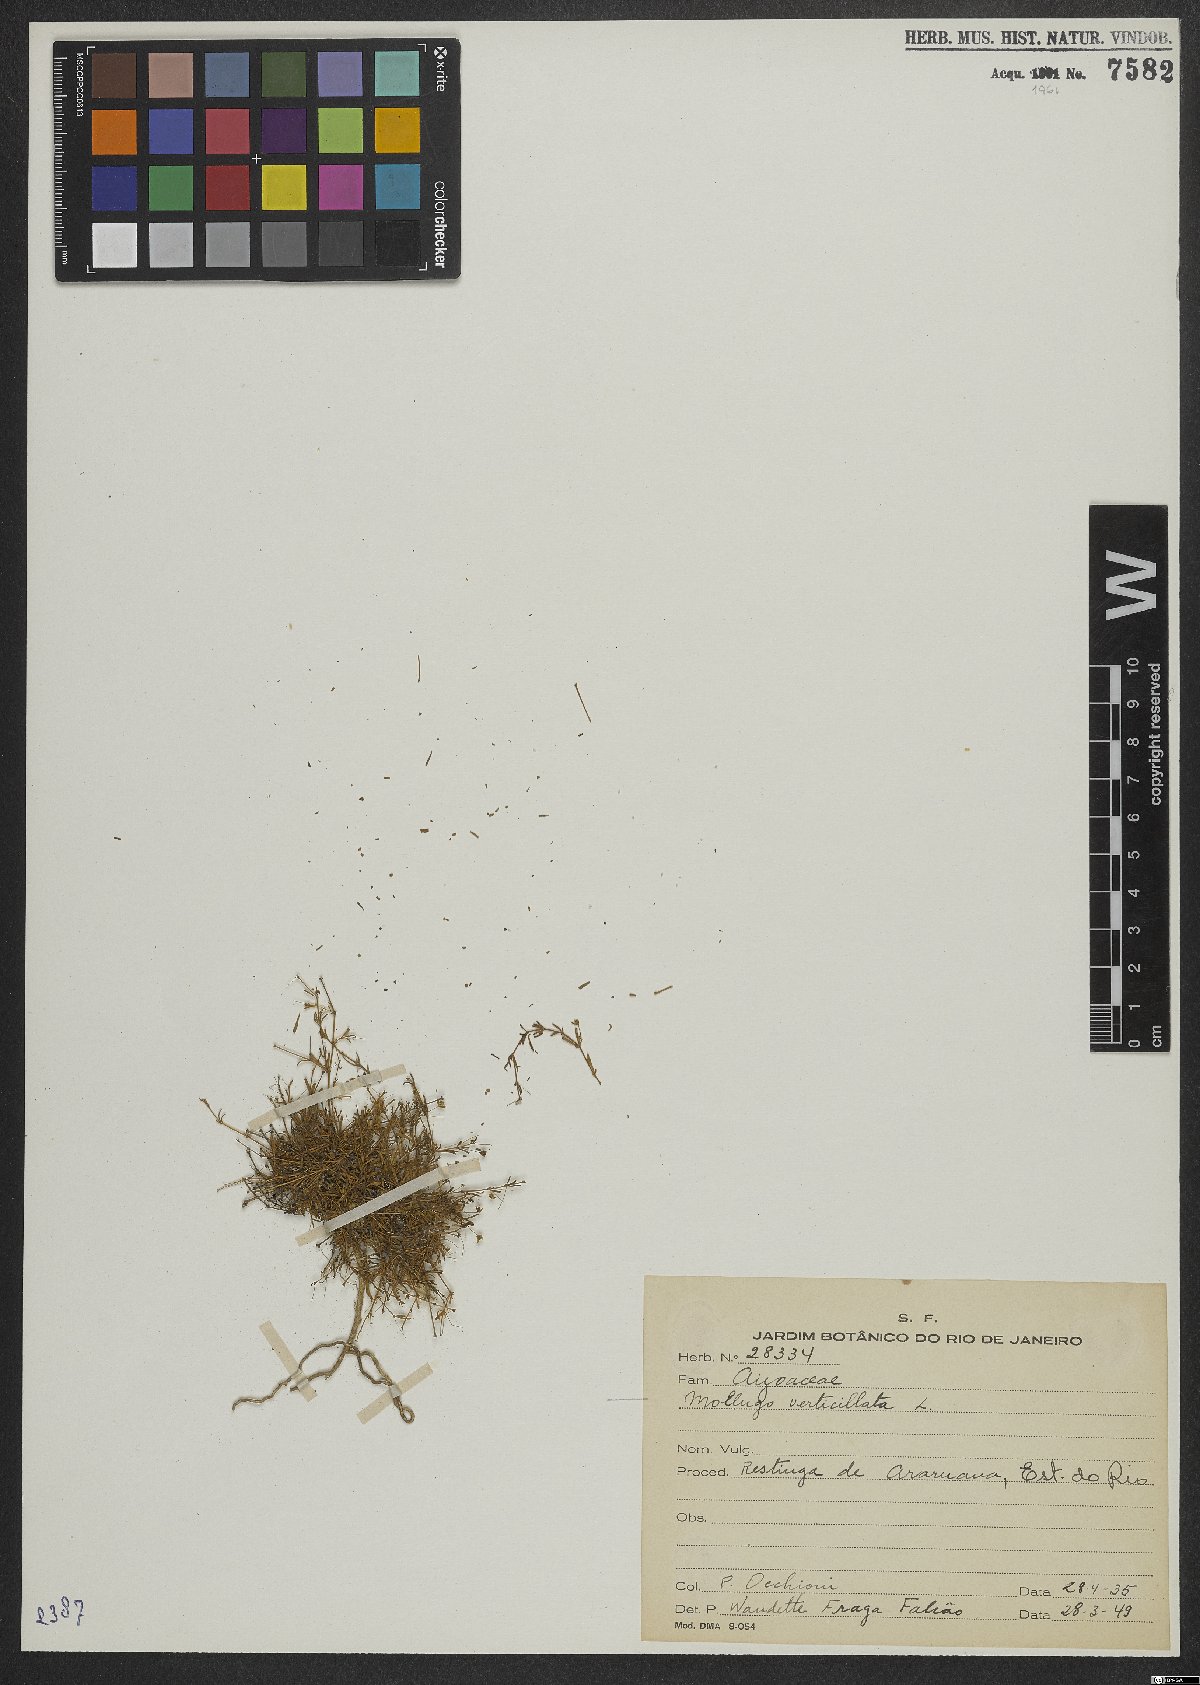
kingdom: Plantae
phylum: Tracheophyta
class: Magnoliopsida
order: Caryophyllales
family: Molluginaceae
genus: Mollugo
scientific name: Mollugo verticillata
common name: Green carpetweed
